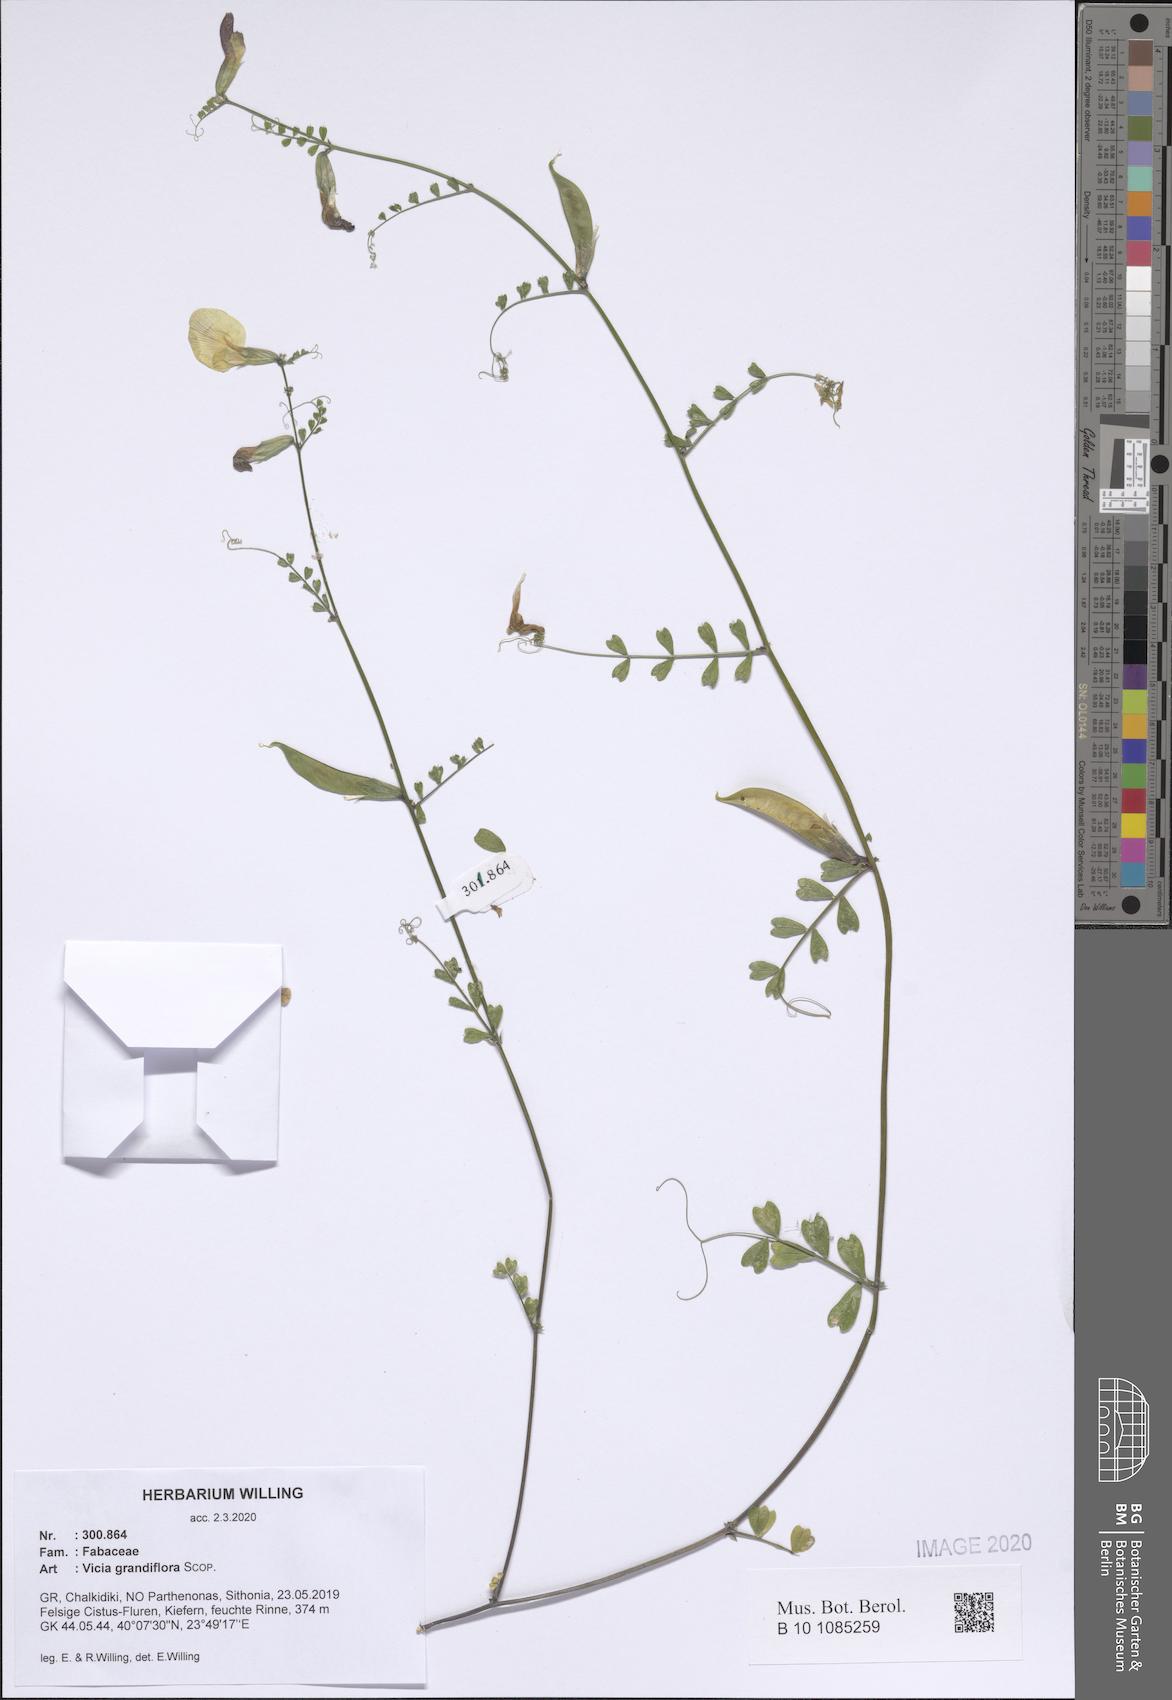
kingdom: Plantae
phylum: Tracheophyta
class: Magnoliopsida
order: Fabales
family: Fabaceae
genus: Vicia
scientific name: Vicia grandiflora
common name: Large yellow vetch
